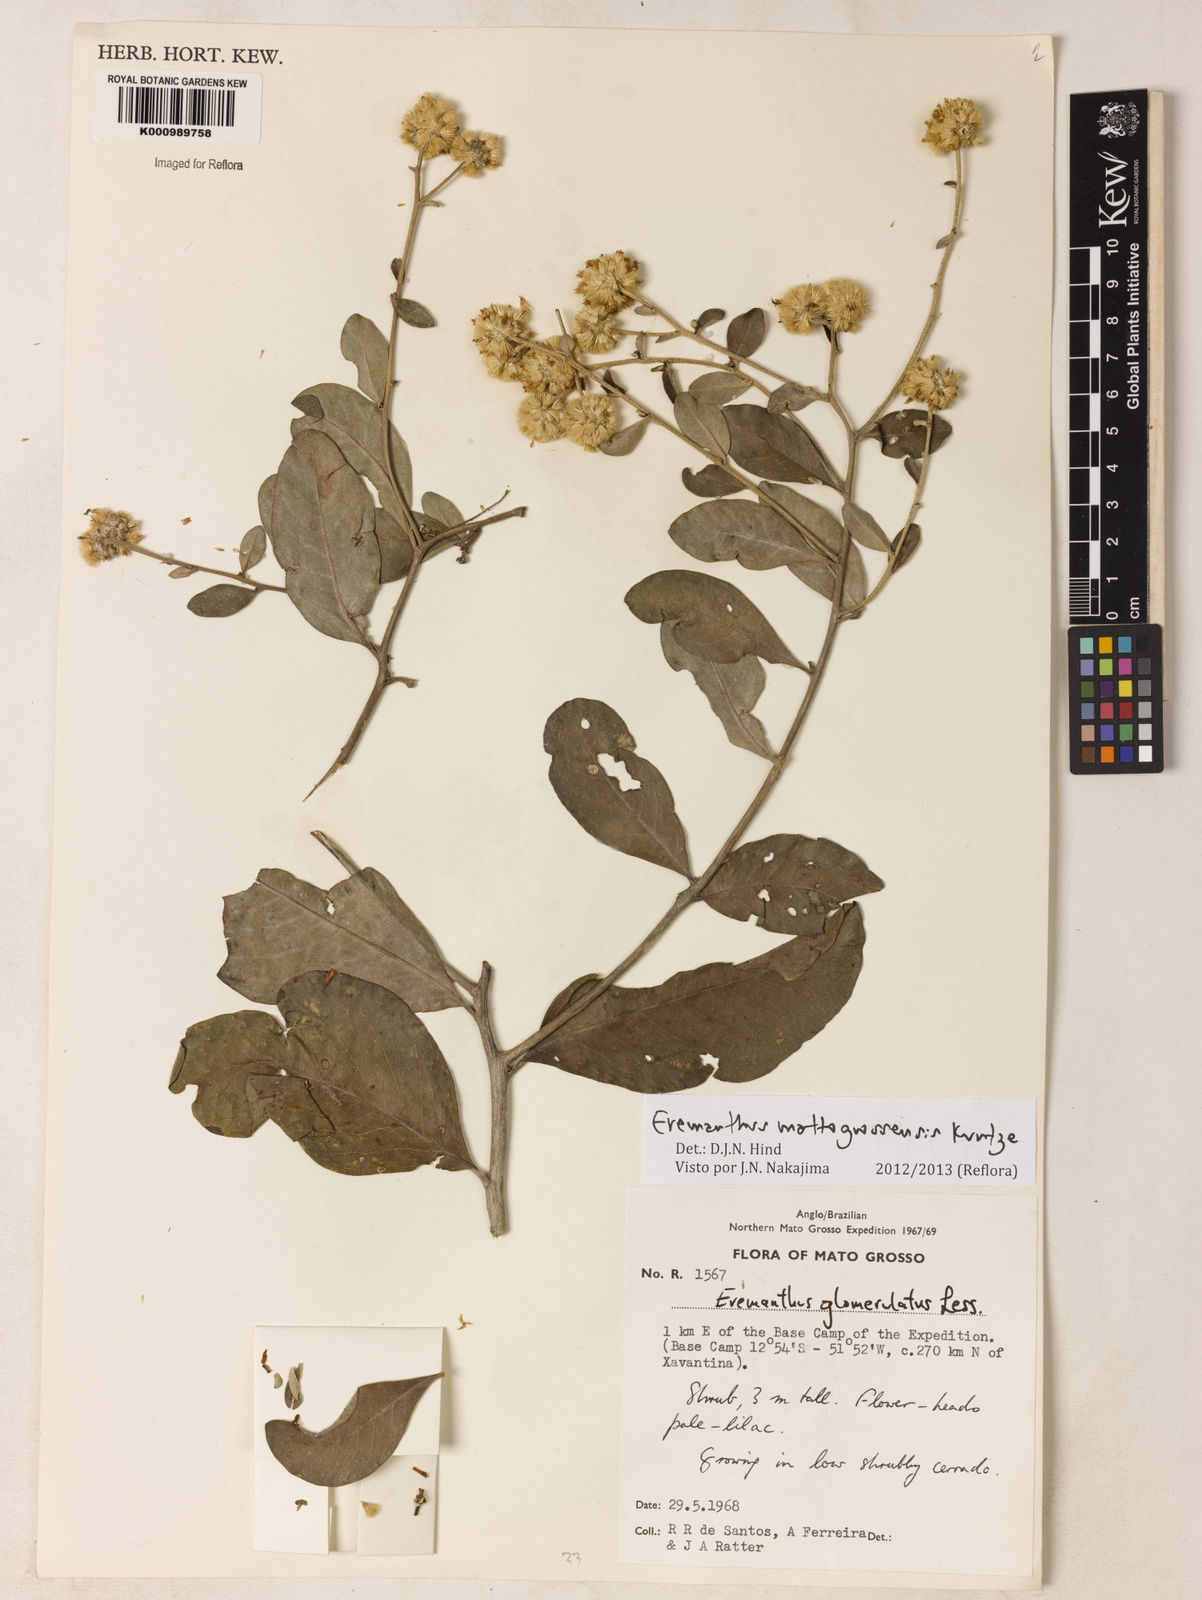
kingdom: Plantae
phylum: Tracheophyta
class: Magnoliopsida
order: Asterales
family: Asteraceae
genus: Eremanthus
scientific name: Eremanthus mattogrossensis
